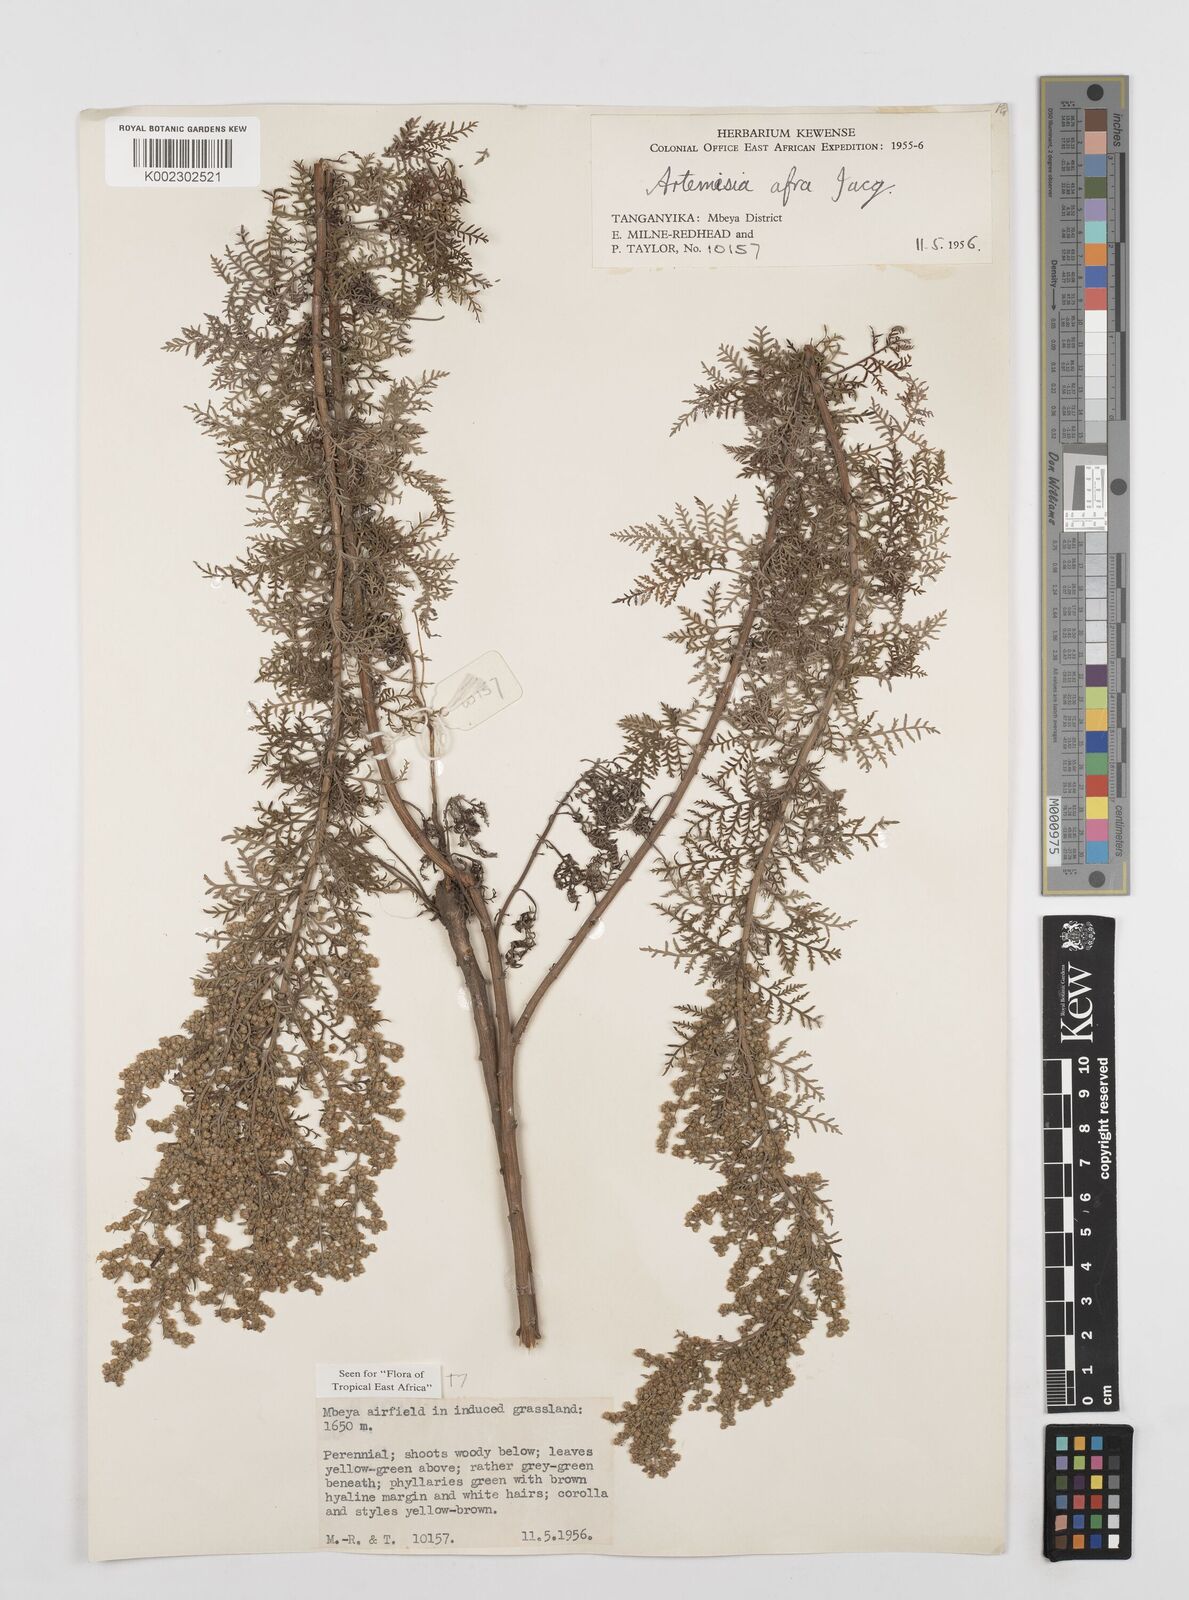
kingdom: Plantae
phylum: Tracheophyta
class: Magnoliopsida
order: Asterales
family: Asteraceae
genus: Artemisia
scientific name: Artemisia afra
